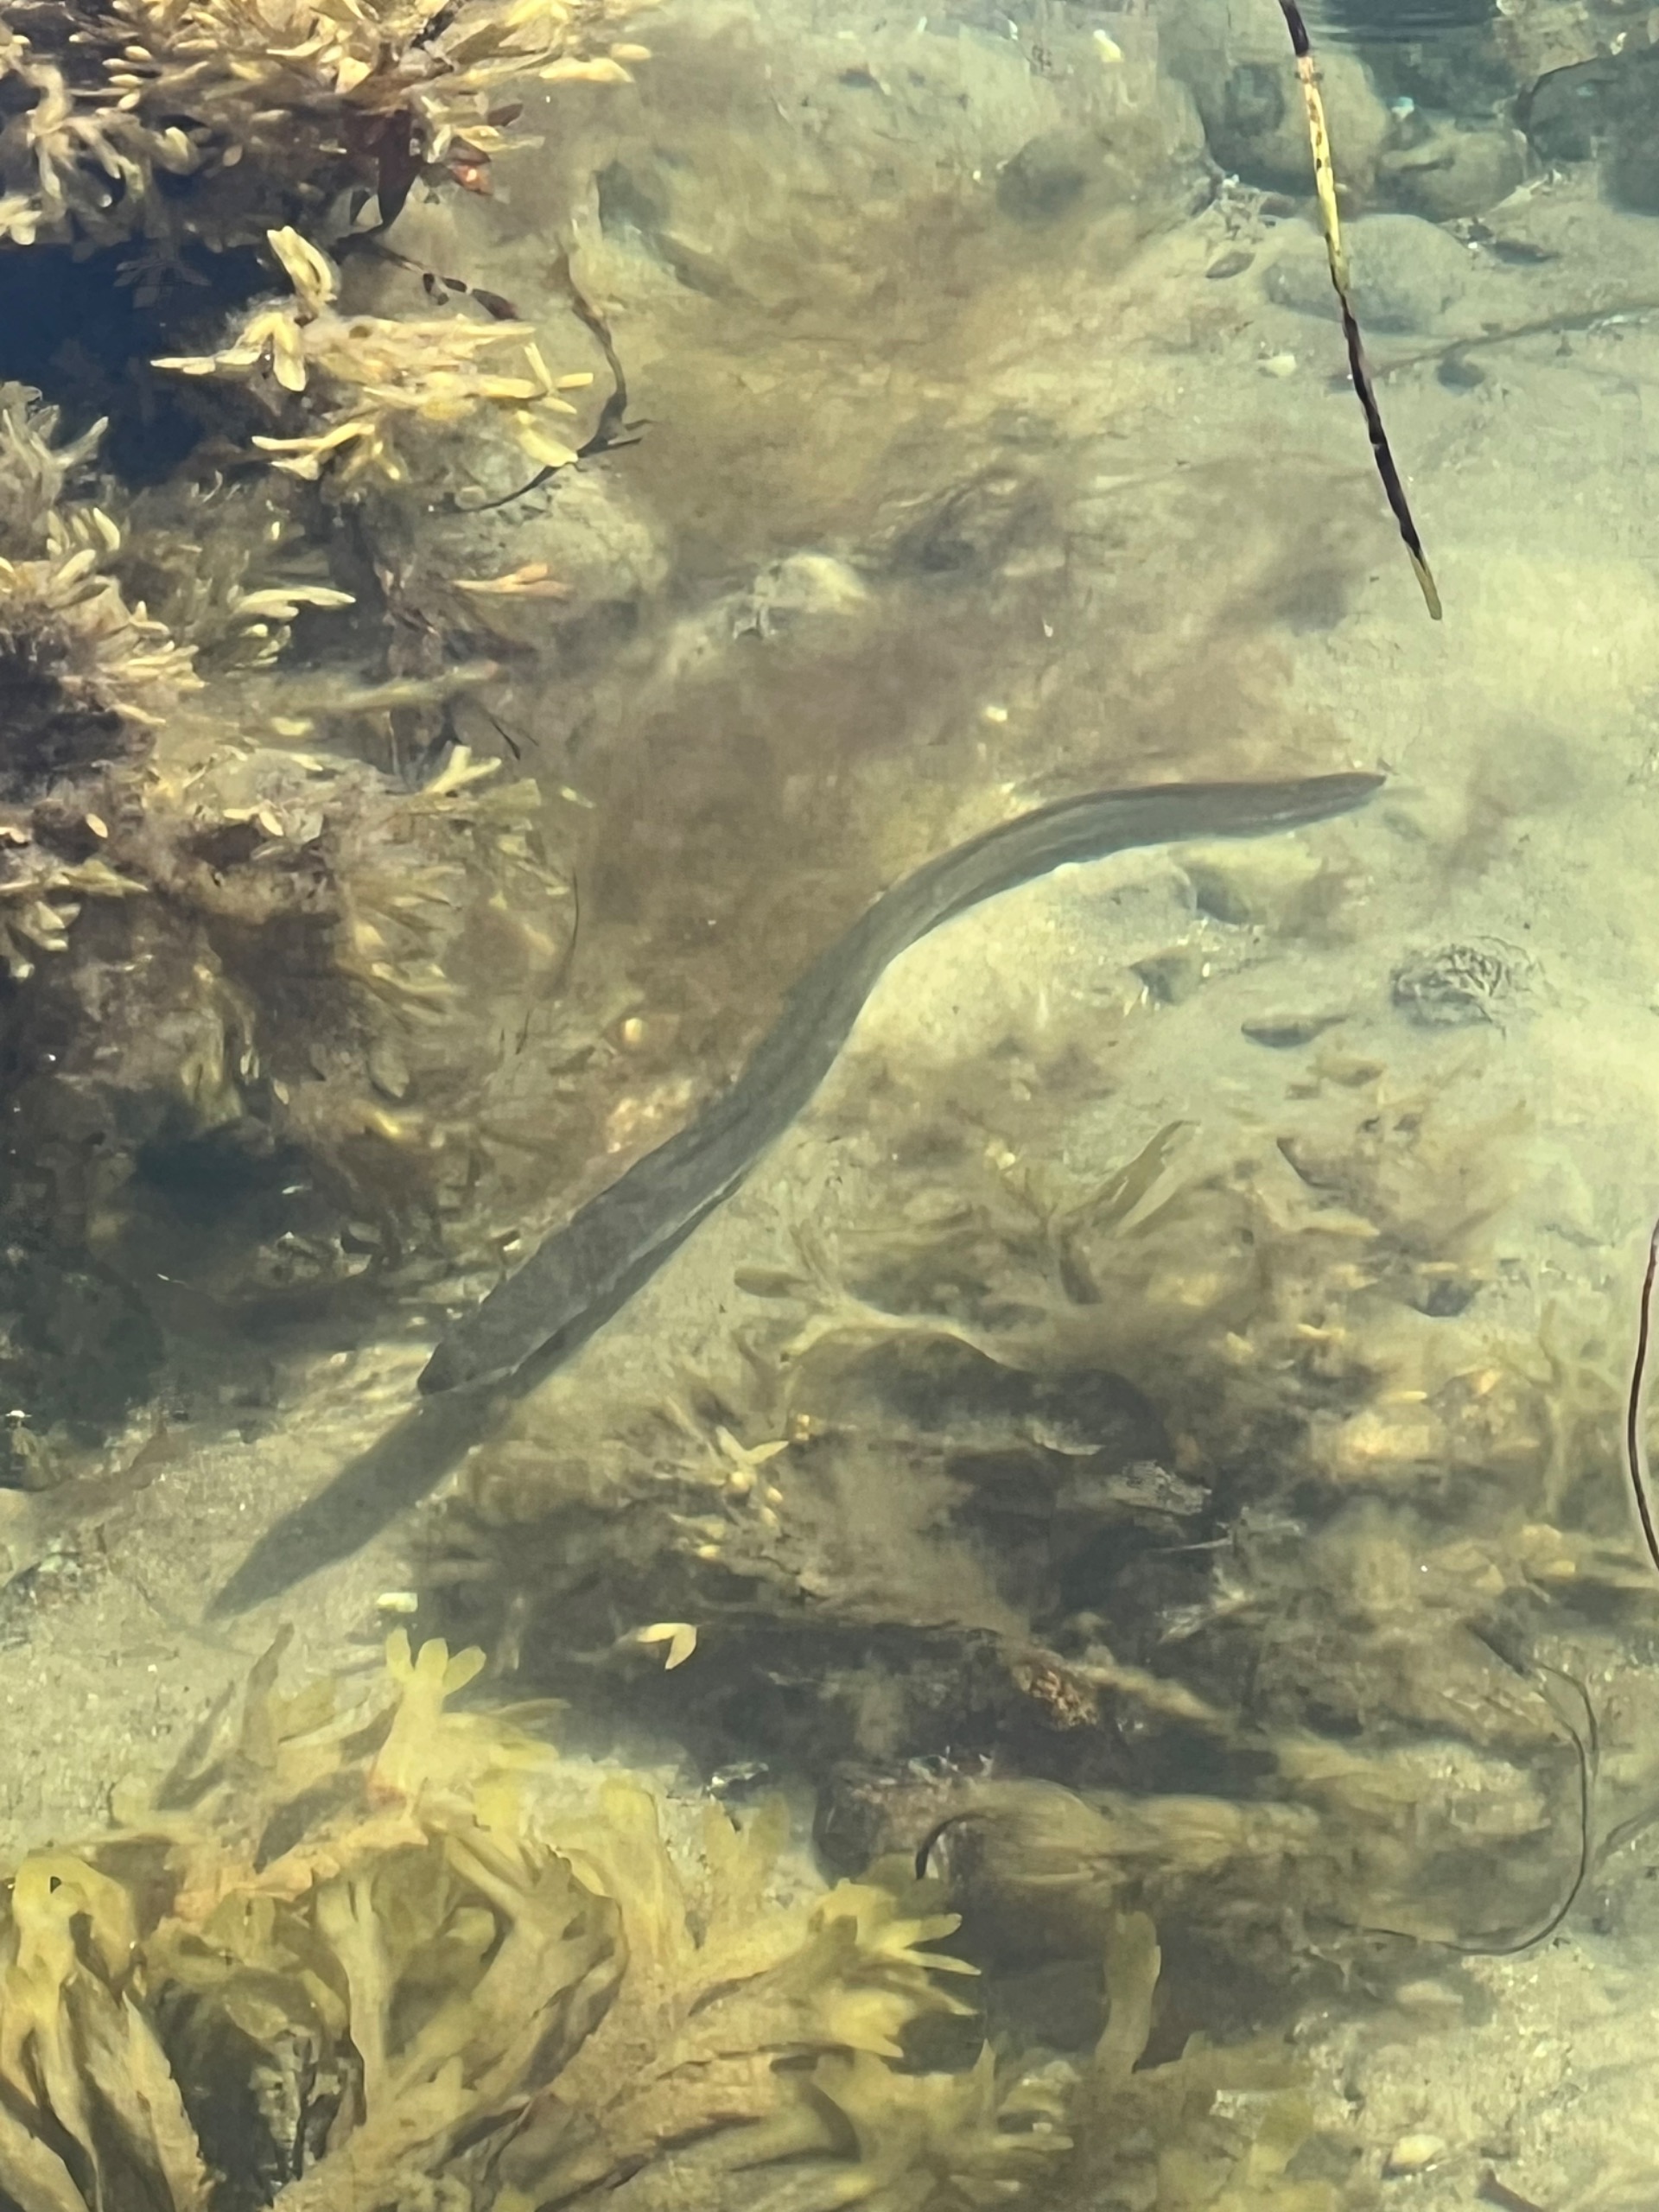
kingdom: Animalia
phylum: Chordata
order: Anguilliformes
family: Anguillidae
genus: Anguilla
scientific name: Anguilla anguilla
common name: Europæisk ål
